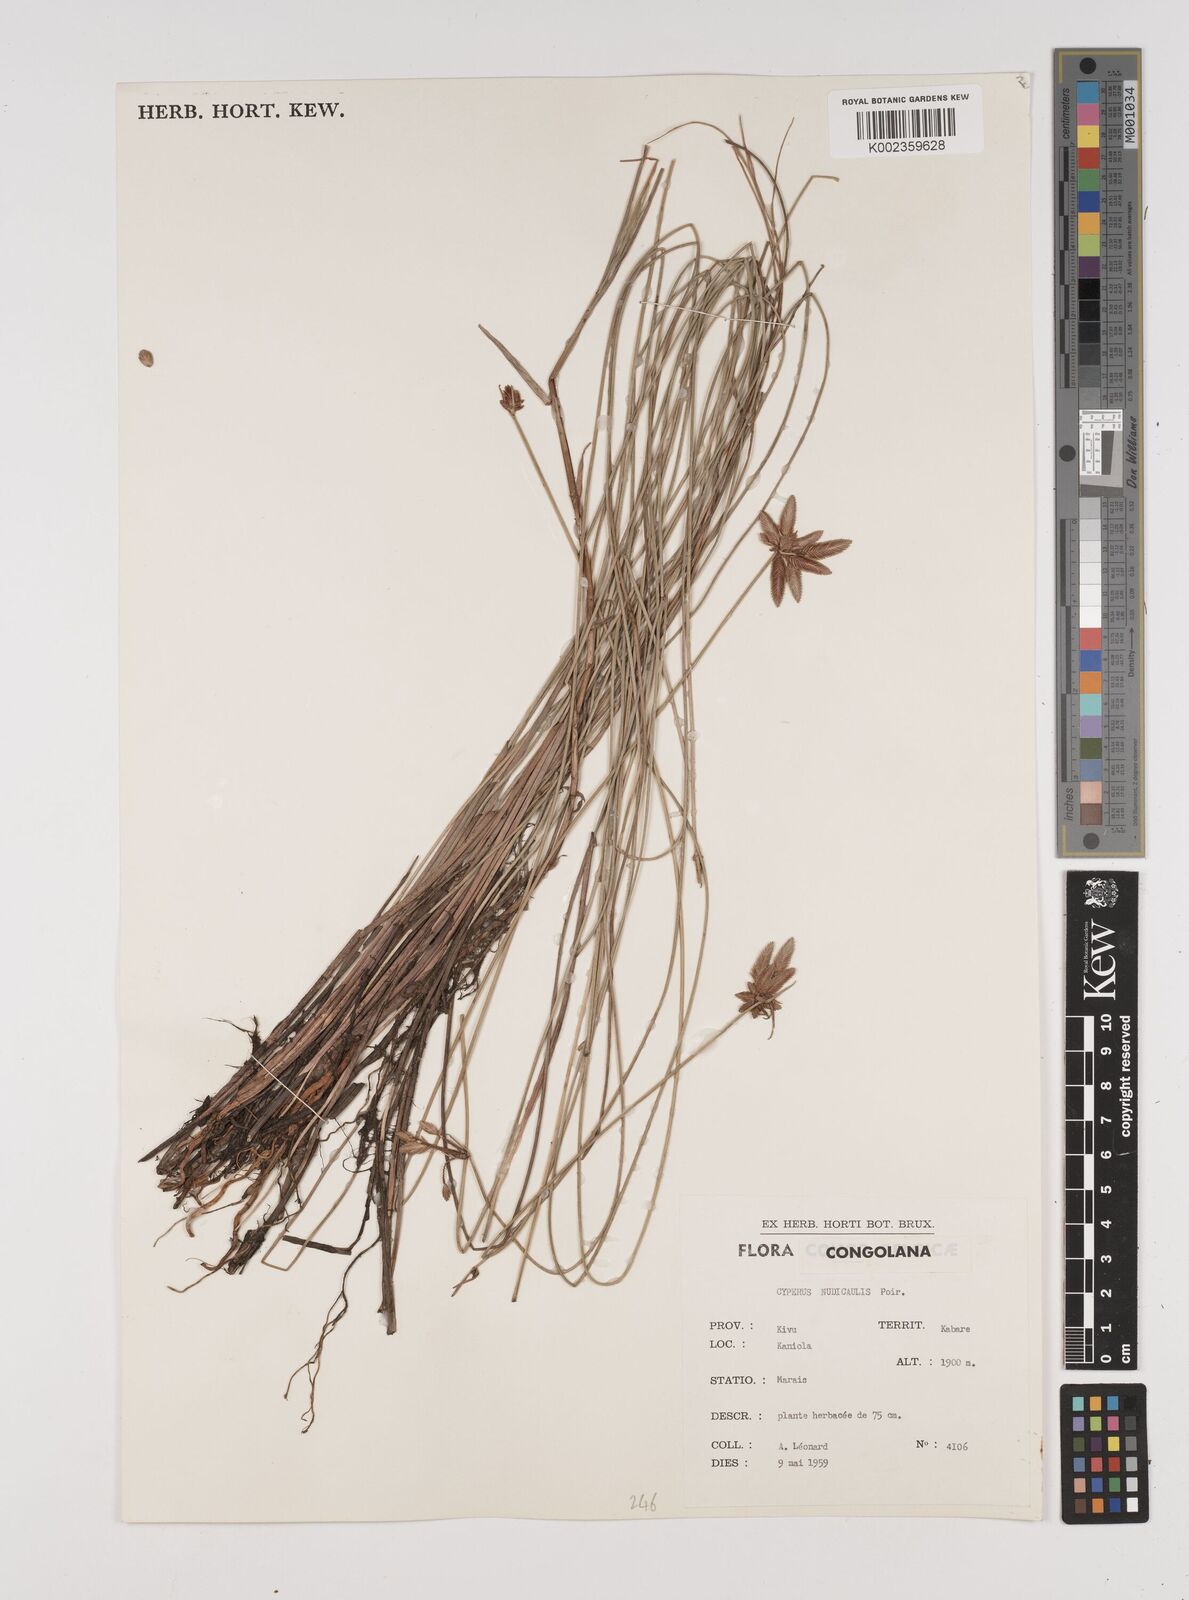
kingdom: Plantae
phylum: Tracheophyta
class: Liliopsida
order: Poales
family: Cyperaceae
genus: Cyperus
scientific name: Cyperus pectinatus
